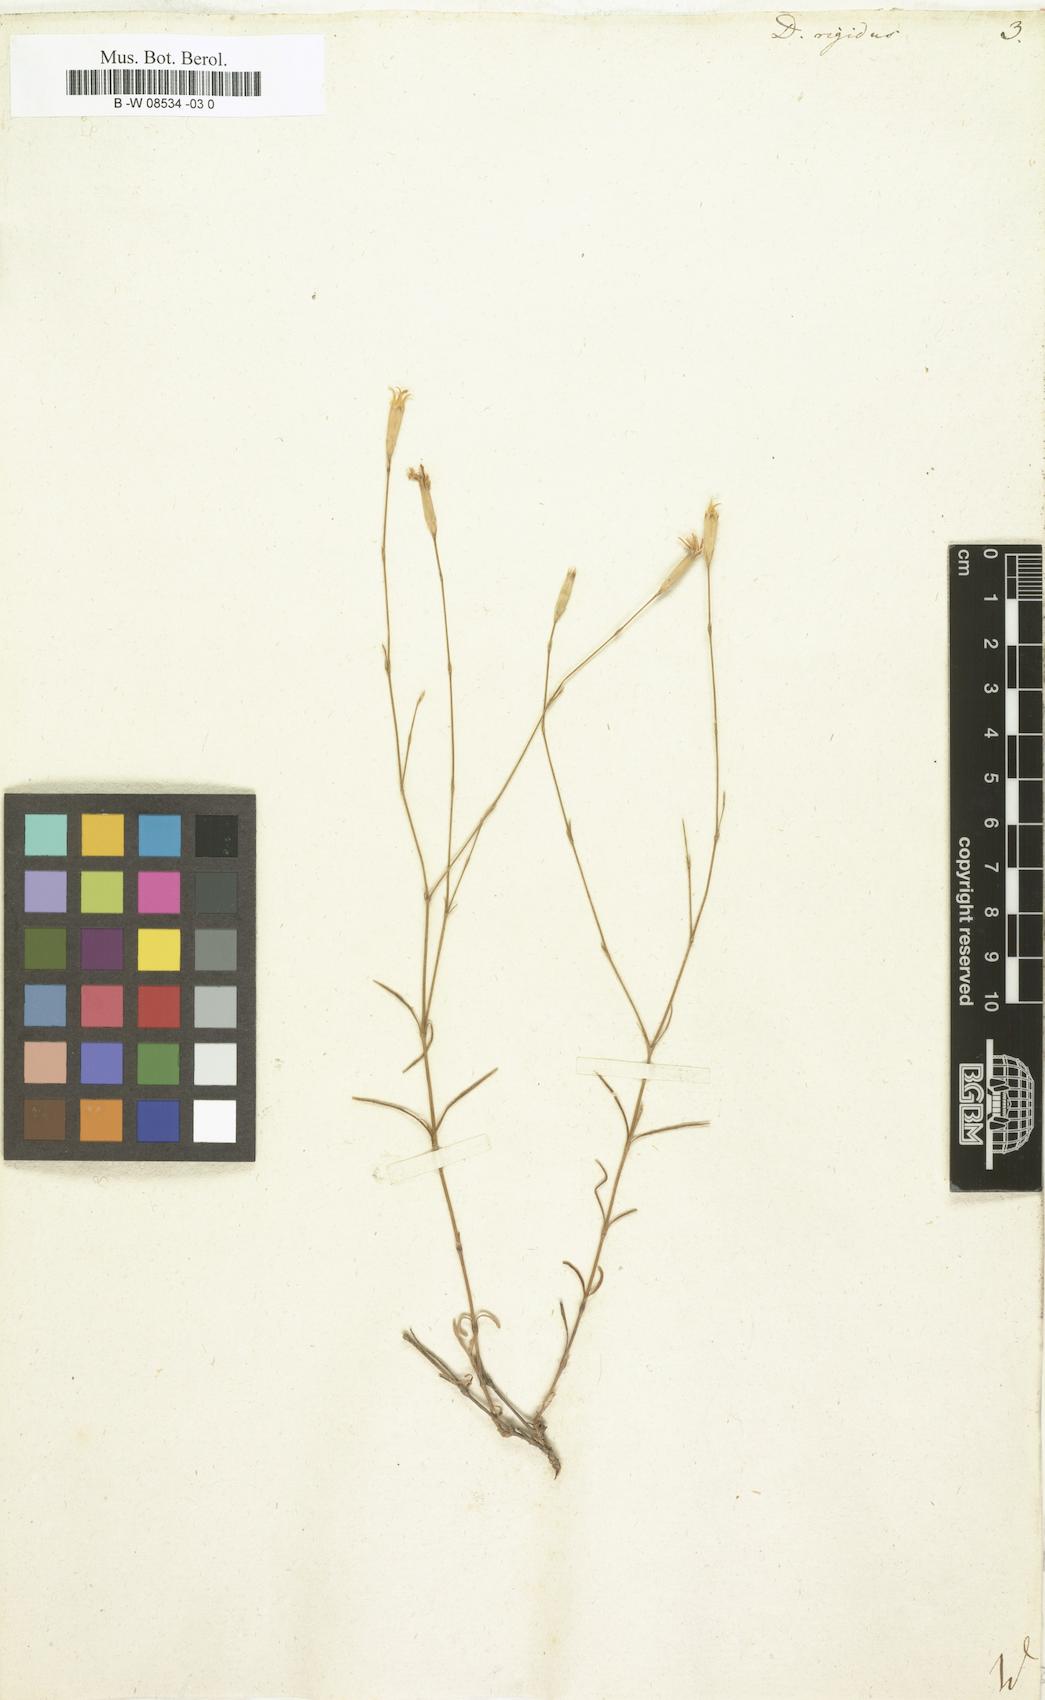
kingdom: Plantae
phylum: Tracheophyta
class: Magnoliopsida
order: Caryophyllales
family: Caryophyllaceae
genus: Dianthus
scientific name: Dianthus rigidus
